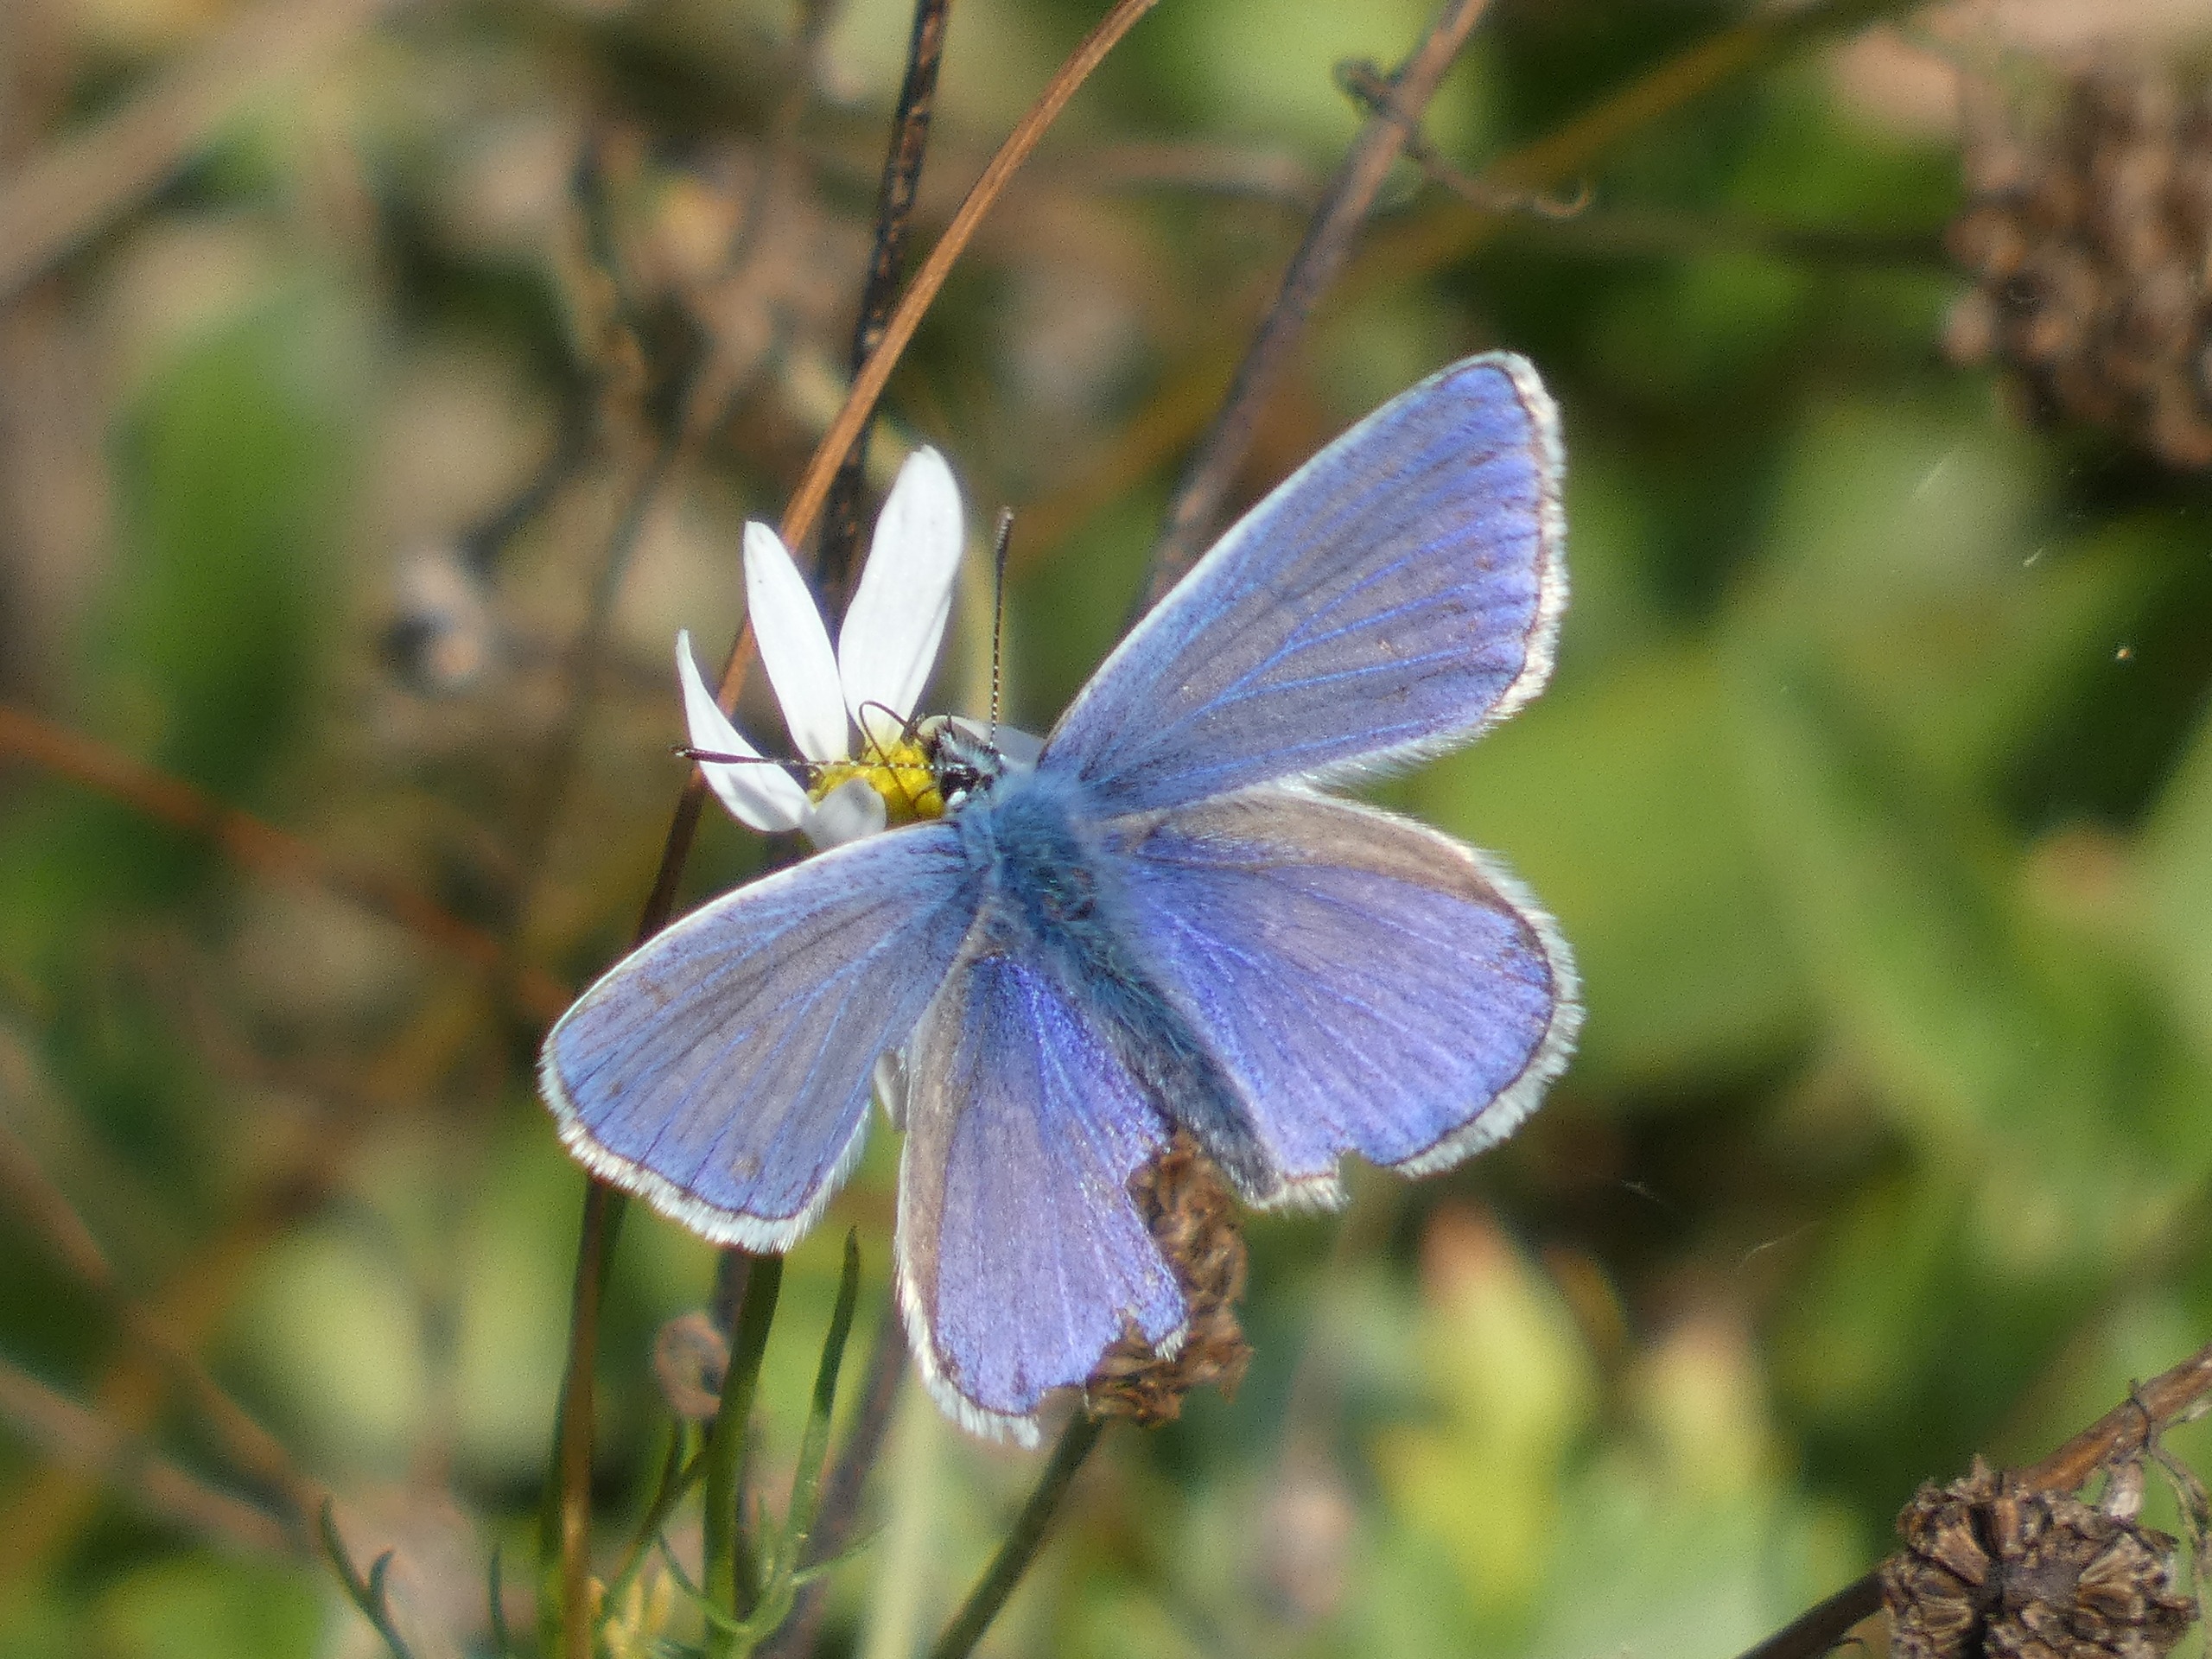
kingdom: Animalia
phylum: Arthropoda
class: Insecta
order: Lepidoptera
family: Lycaenidae
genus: Polyommatus
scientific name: Polyommatus icarus
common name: Almindelig blåfugl
